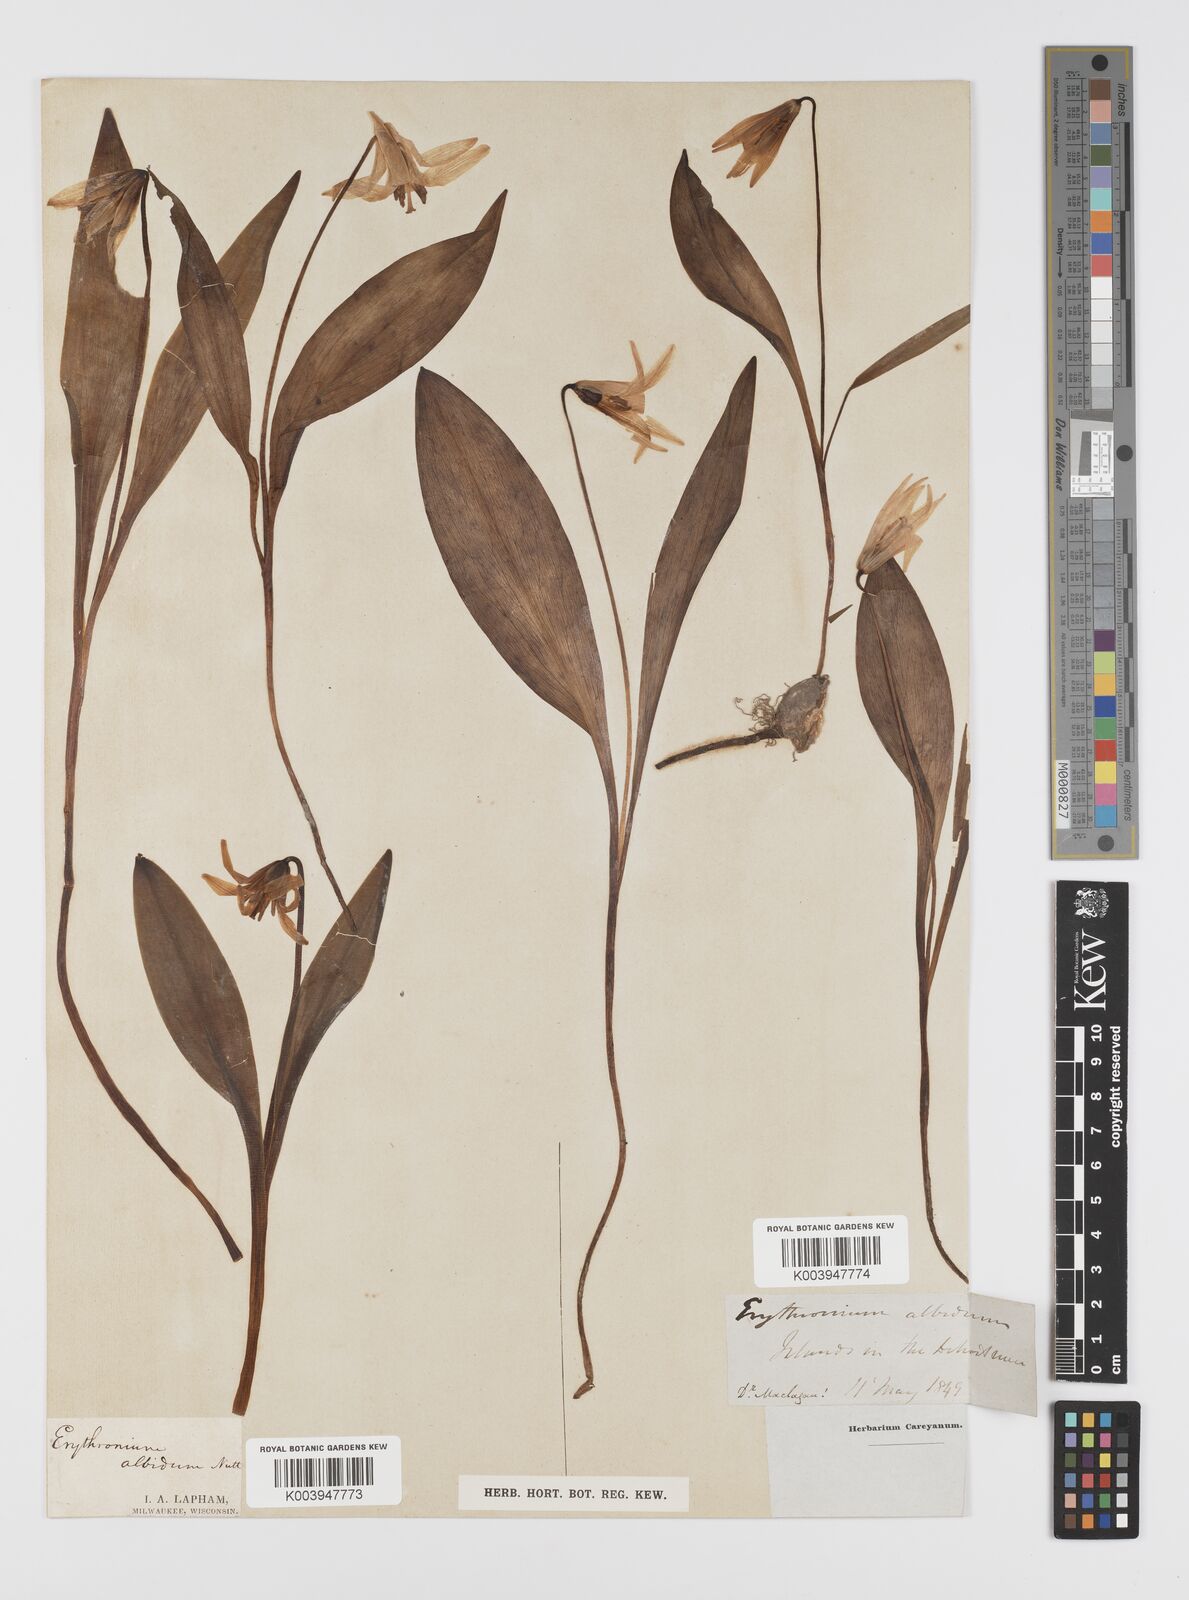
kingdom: Plantae
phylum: Tracheophyta
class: Liliopsida
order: Liliales
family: Liliaceae
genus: Erythronium
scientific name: Erythronium albidum
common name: White trout-lily
